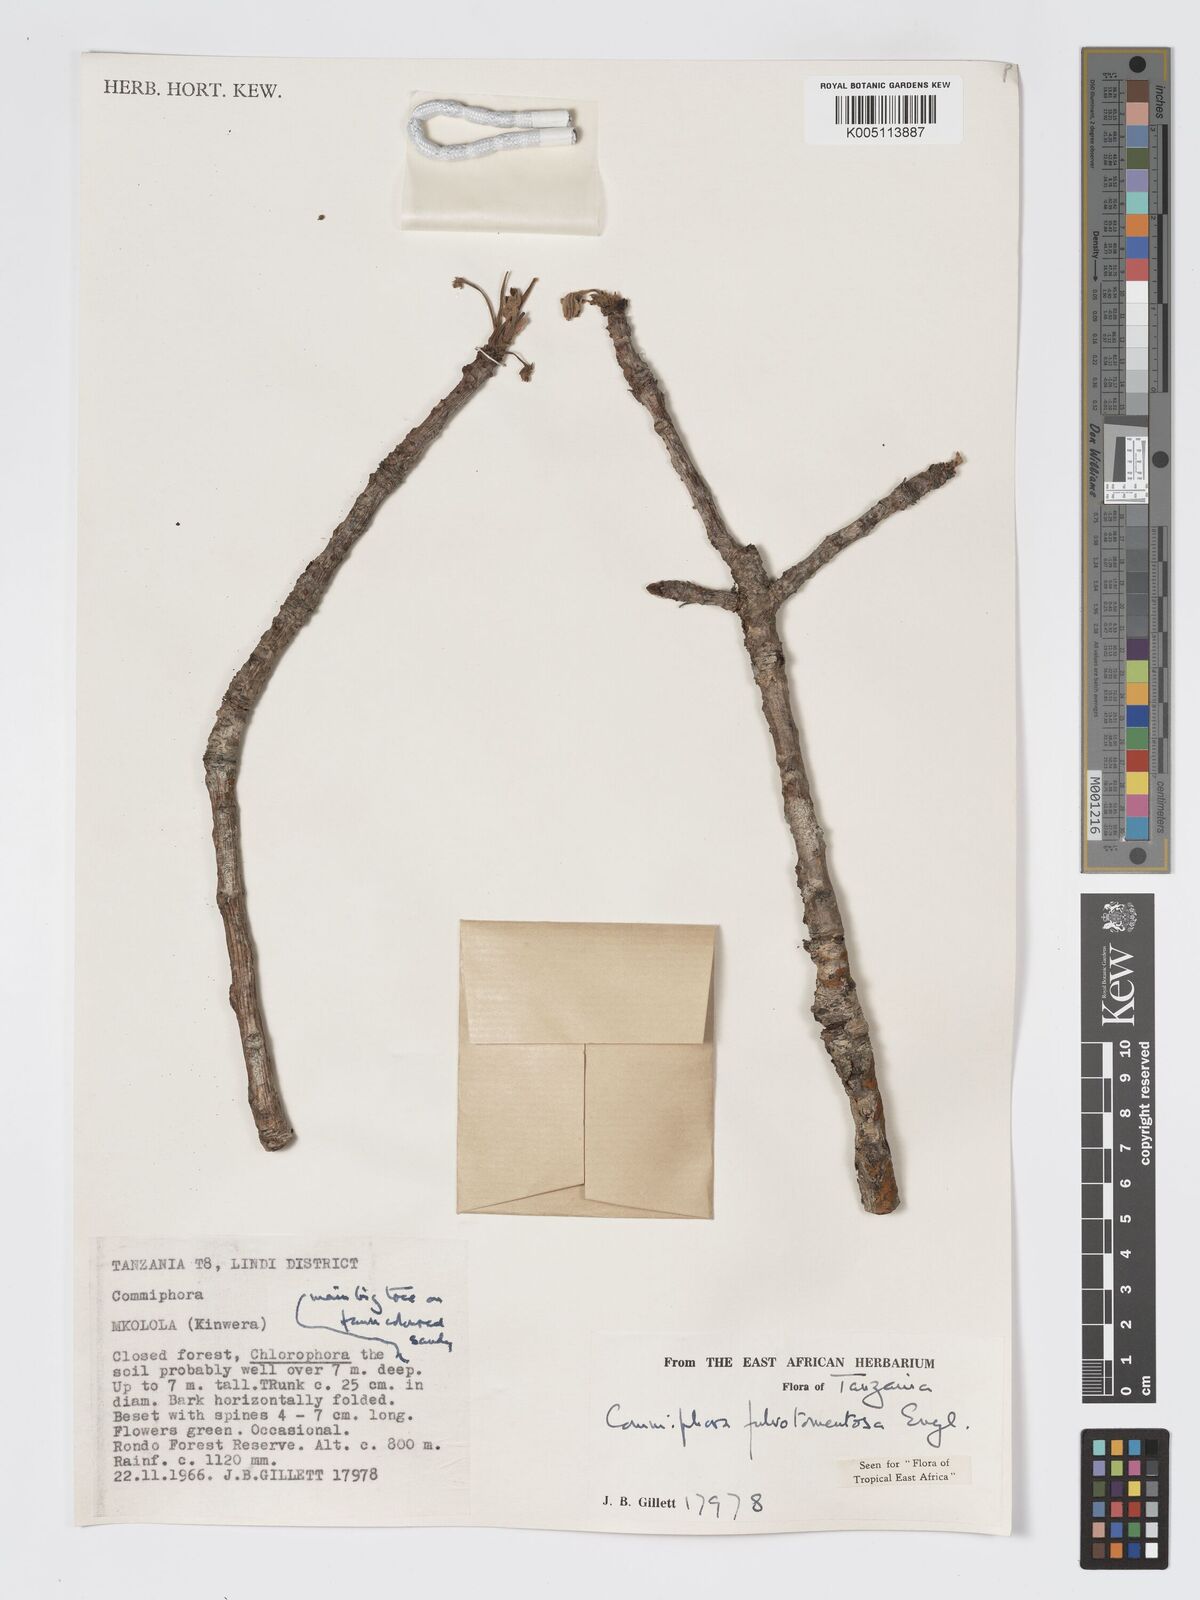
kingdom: Plantae
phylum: Tracheophyta
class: Magnoliopsida
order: Sapindales
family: Burseraceae
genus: Commiphora
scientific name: Commiphora fulvotomentosa
